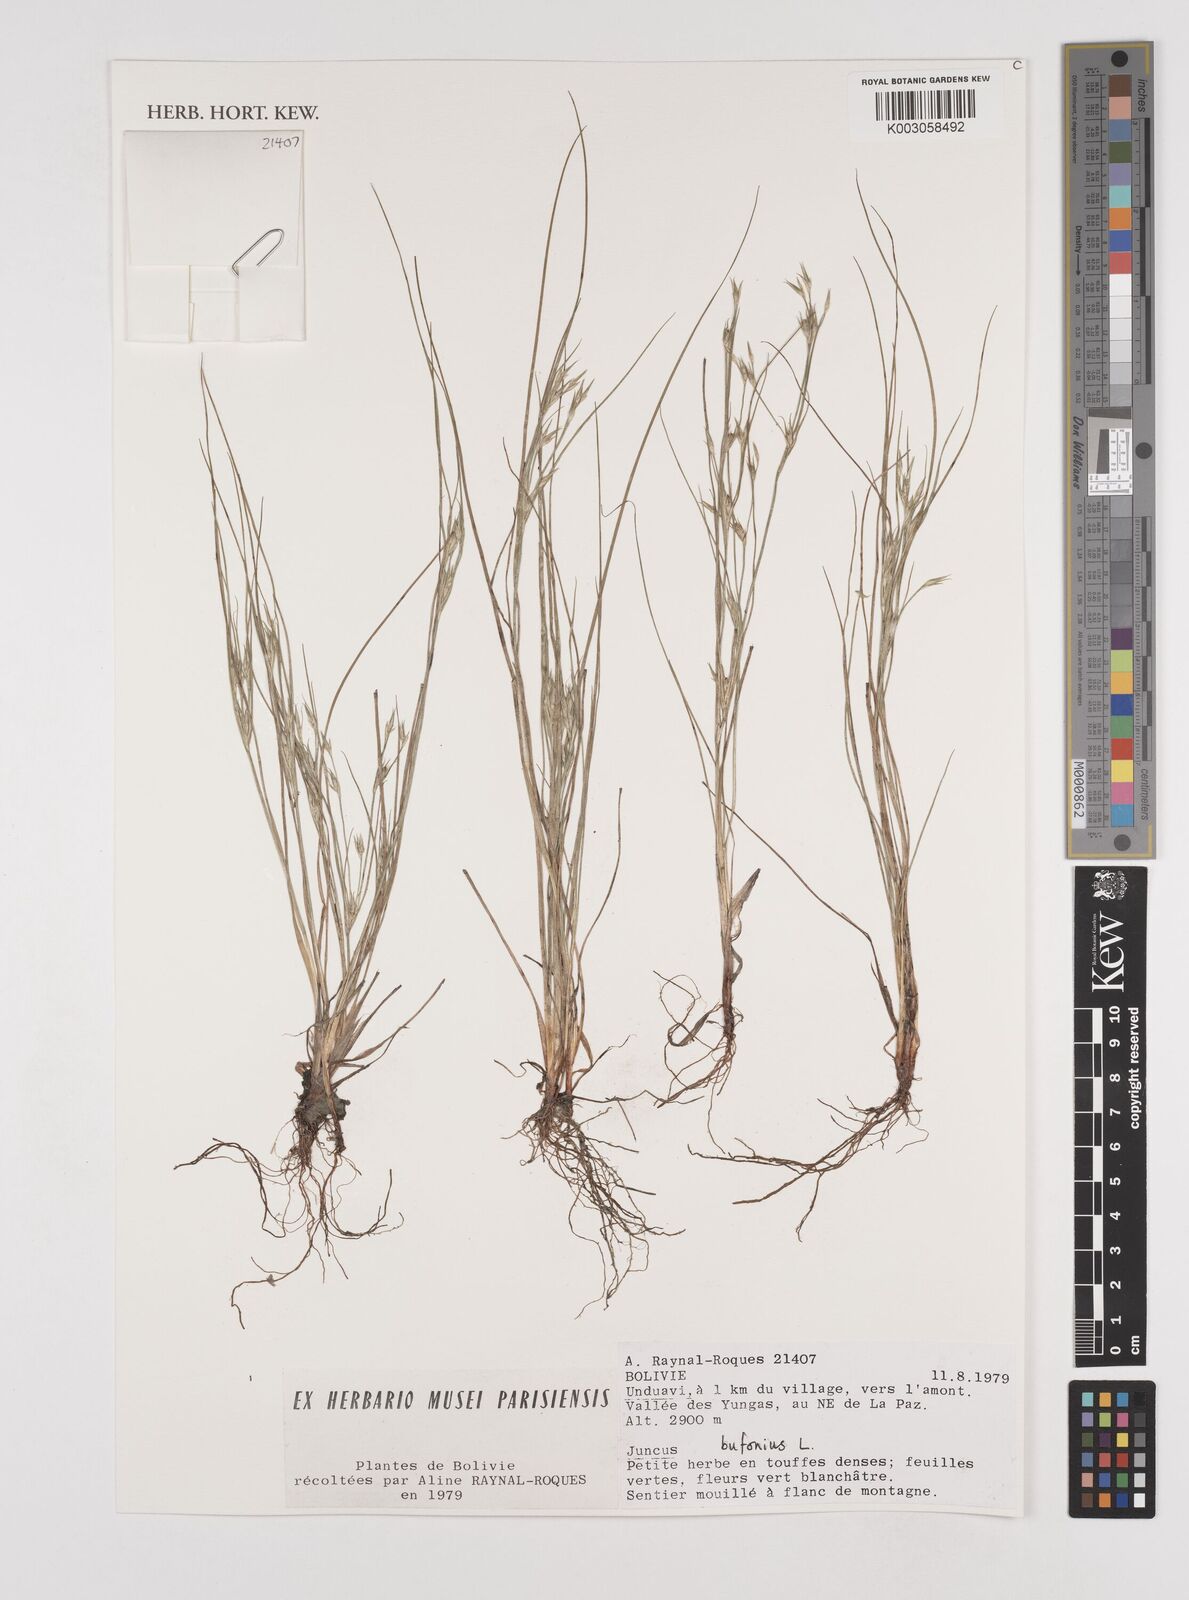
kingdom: Plantae
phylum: Tracheophyta
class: Liliopsida
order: Poales
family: Juncaceae
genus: Juncus
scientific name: Juncus bufonius
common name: Toad rush
